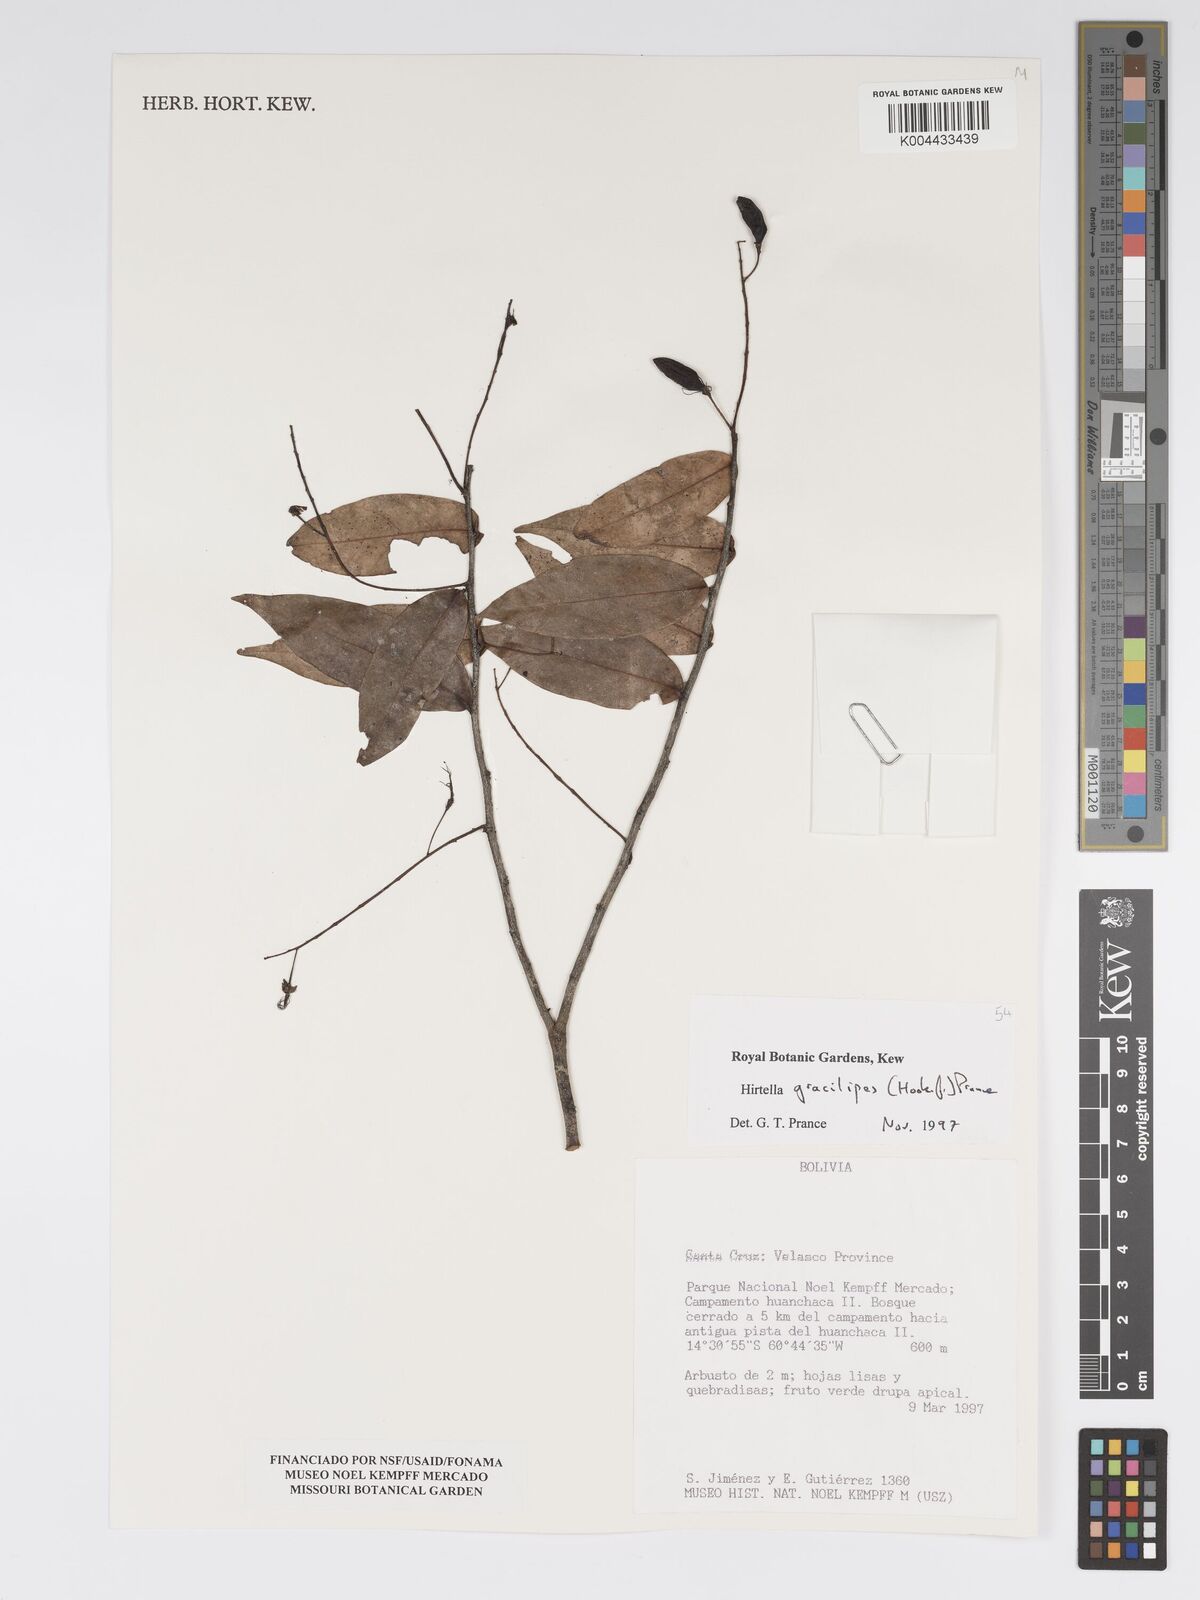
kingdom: Plantae
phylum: Tracheophyta
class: Magnoliopsida
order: Malpighiales
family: Chrysobalanaceae
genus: Hirtella
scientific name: Hirtella gracilipes
